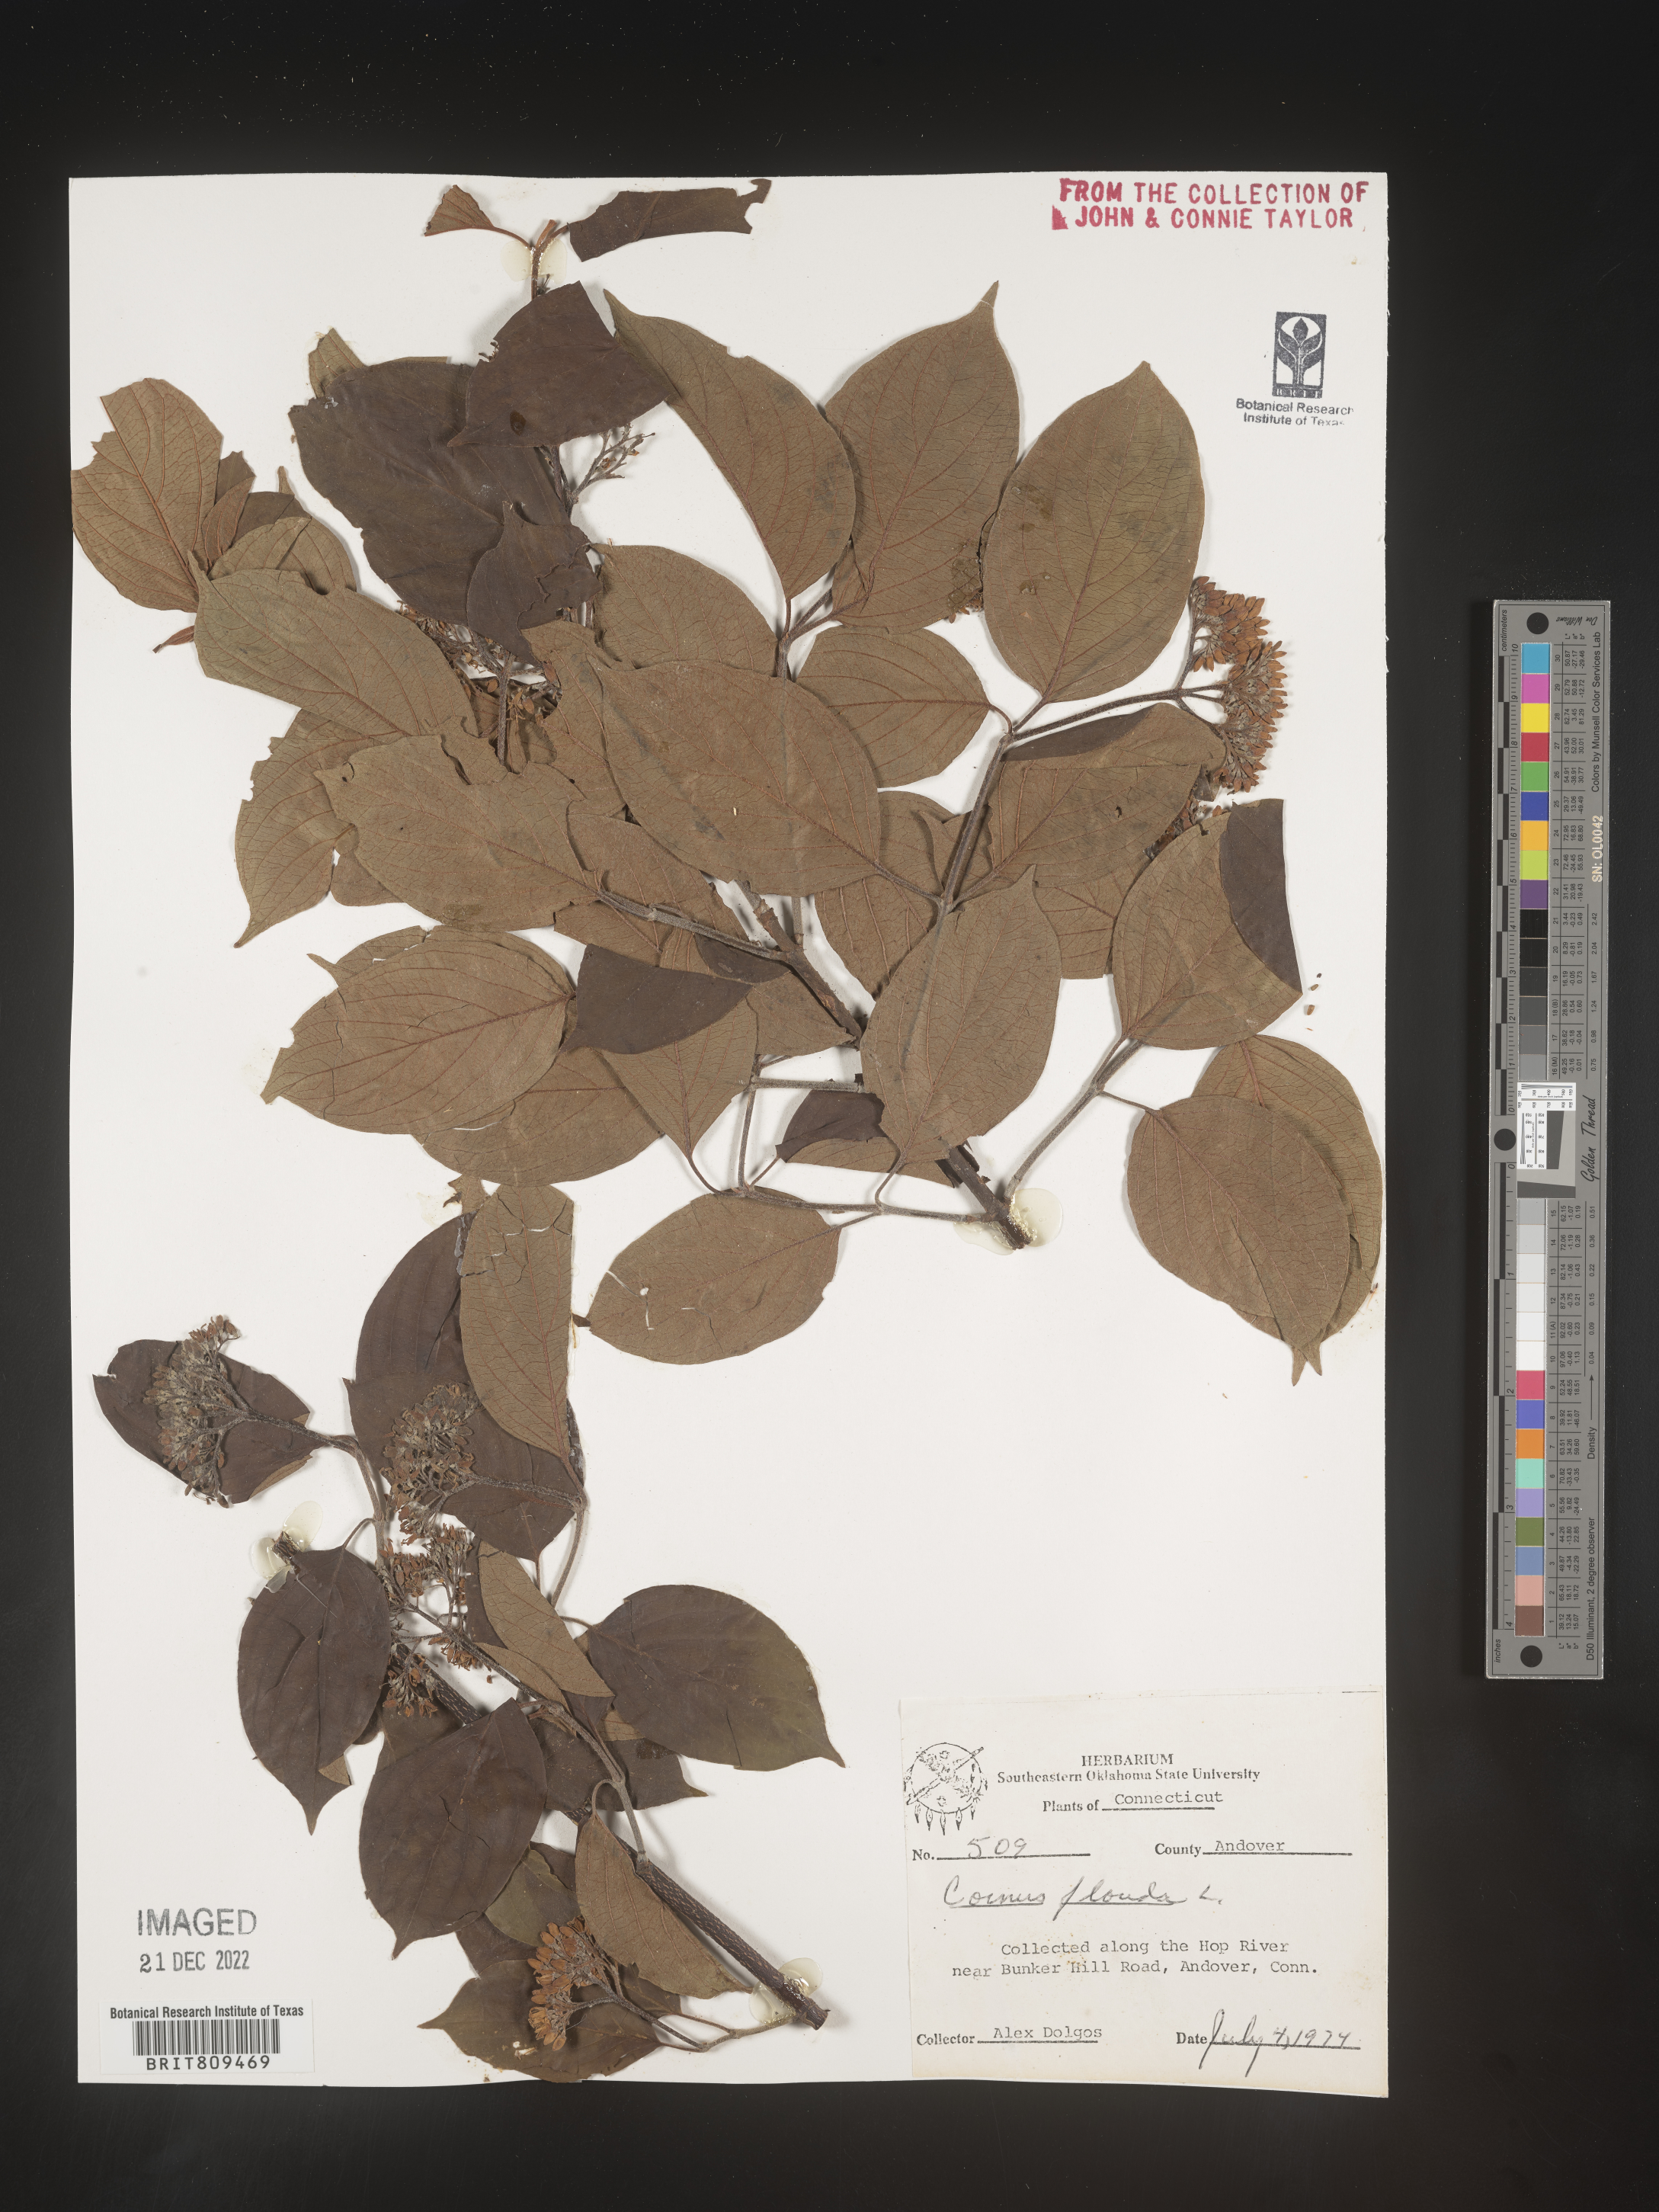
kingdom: Plantae
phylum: Tracheophyta
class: Magnoliopsida
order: Cornales
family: Cornaceae
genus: Cornus
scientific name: Cornus florida
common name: Flowering dogwood
